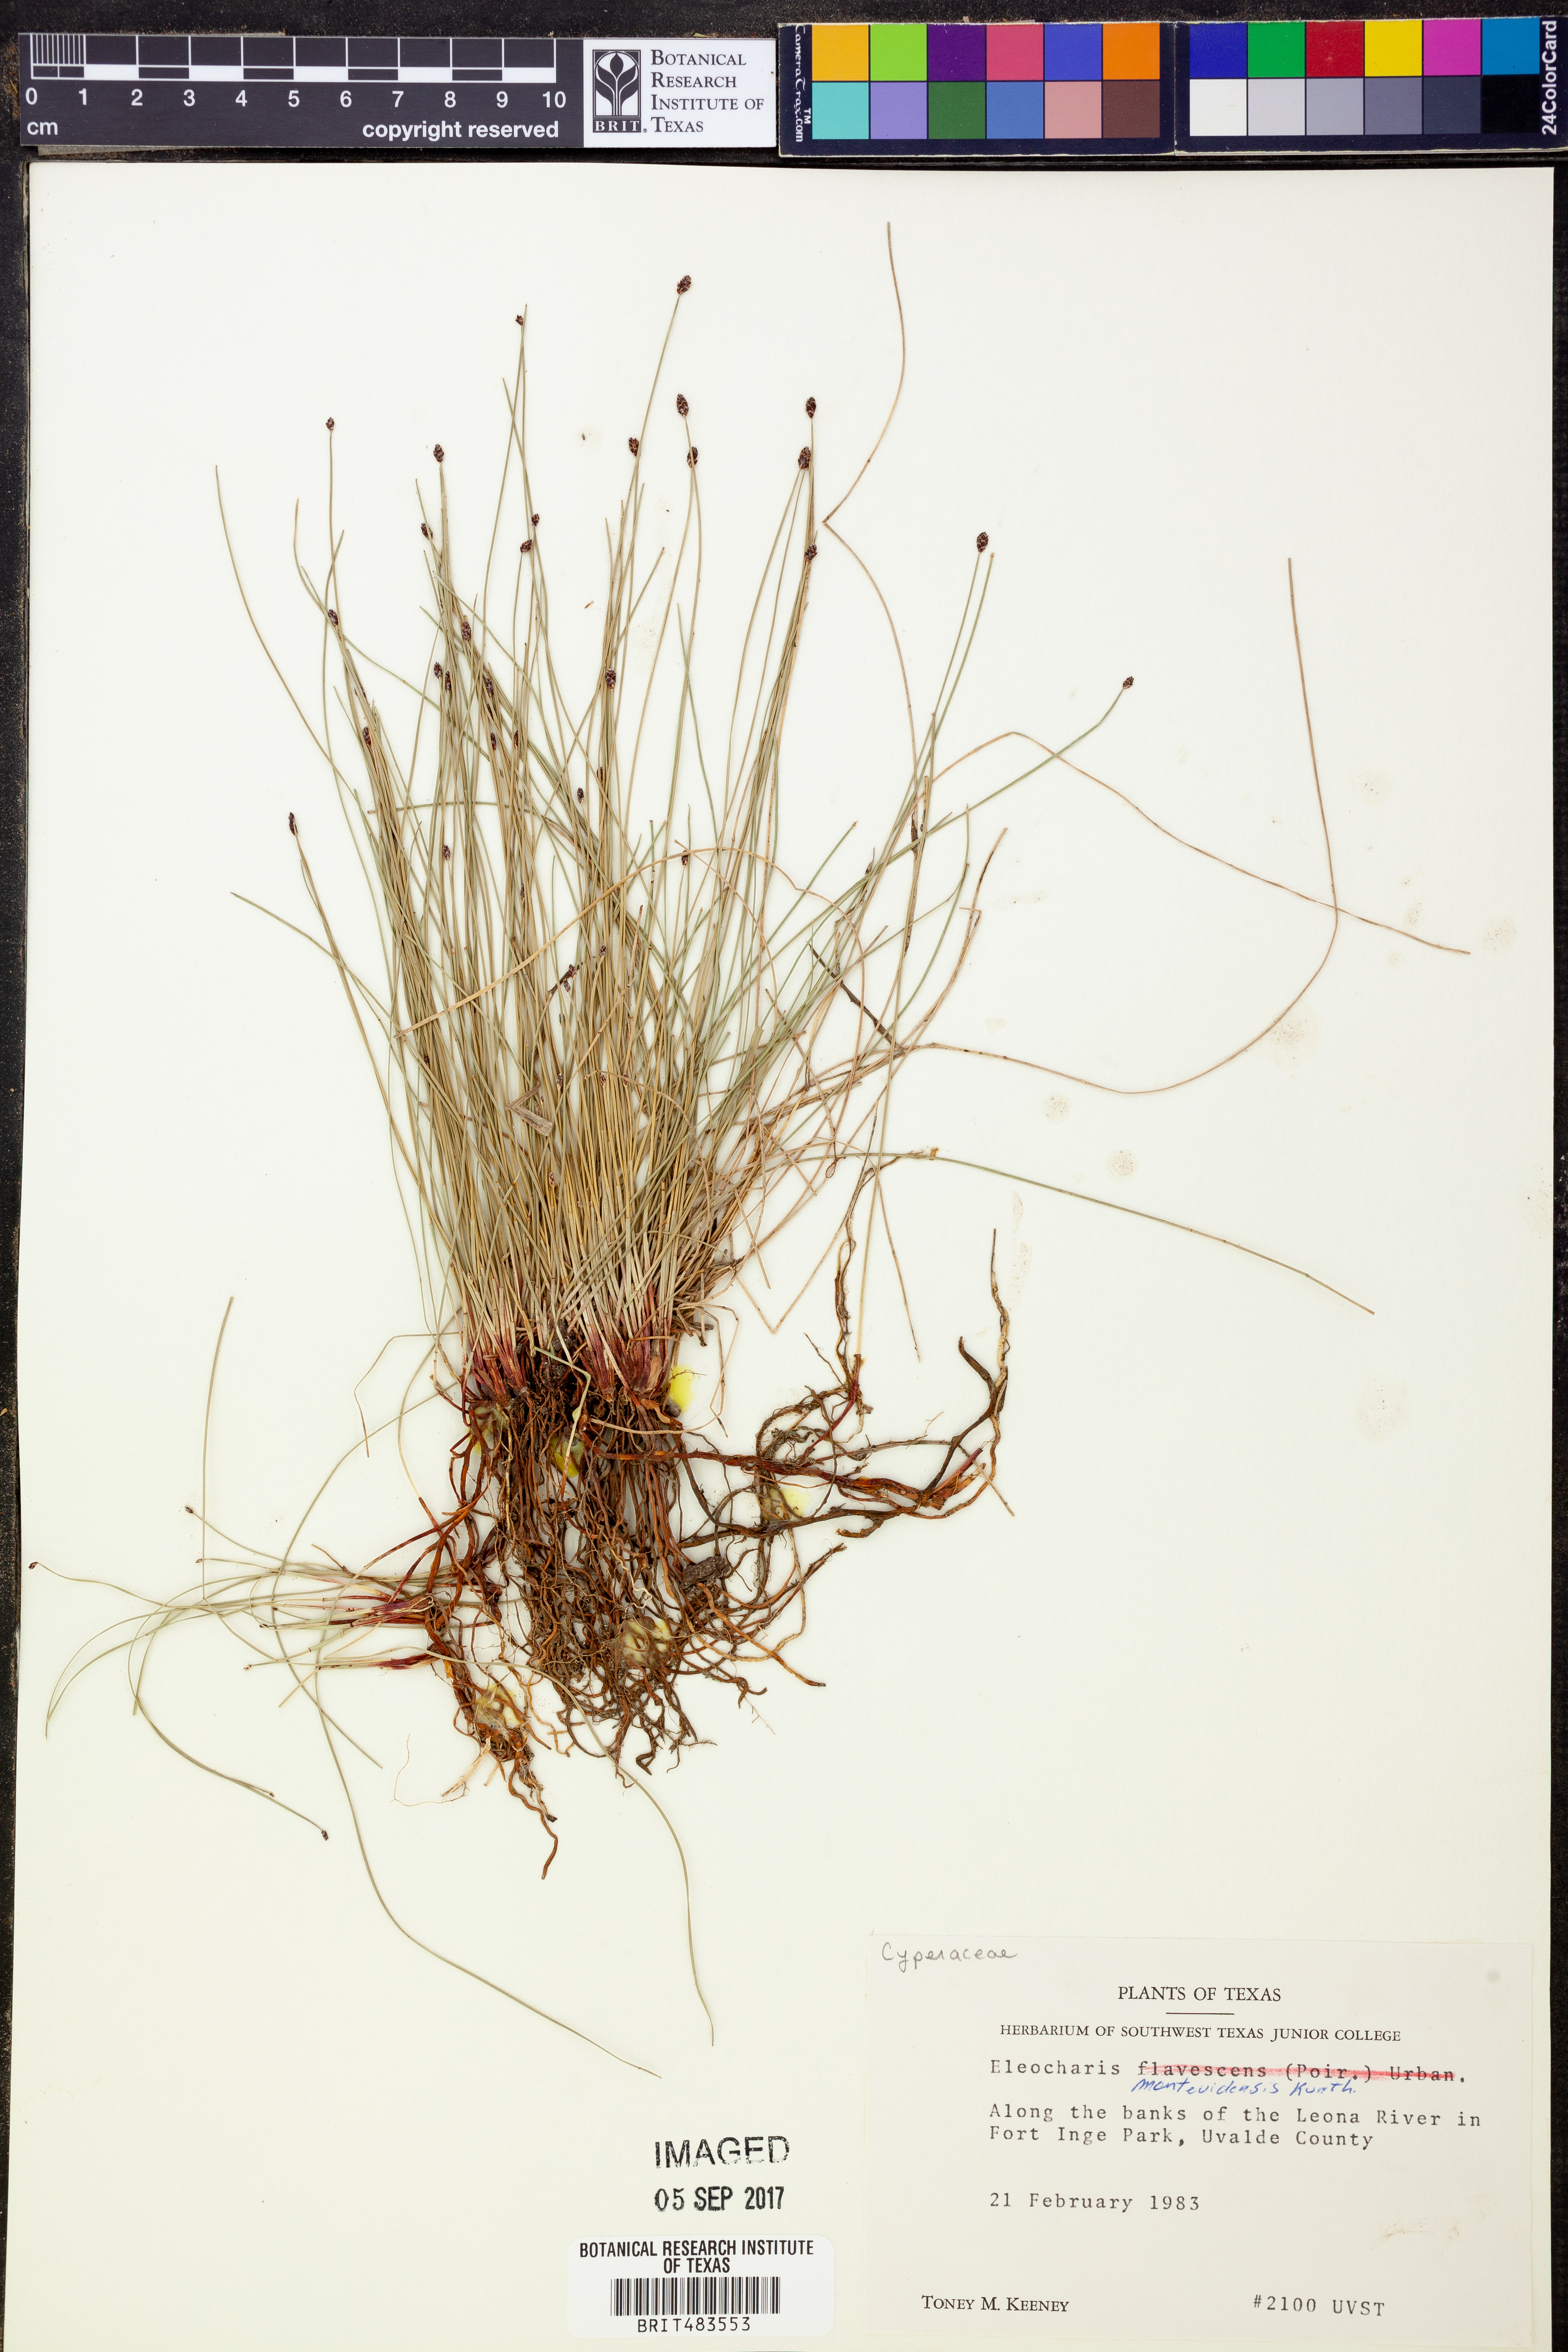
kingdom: Plantae
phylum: Tracheophyta
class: Liliopsida
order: Poales
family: Cyperaceae
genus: Eleocharis
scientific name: Eleocharis montevidensis
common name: Sand spike-rush
